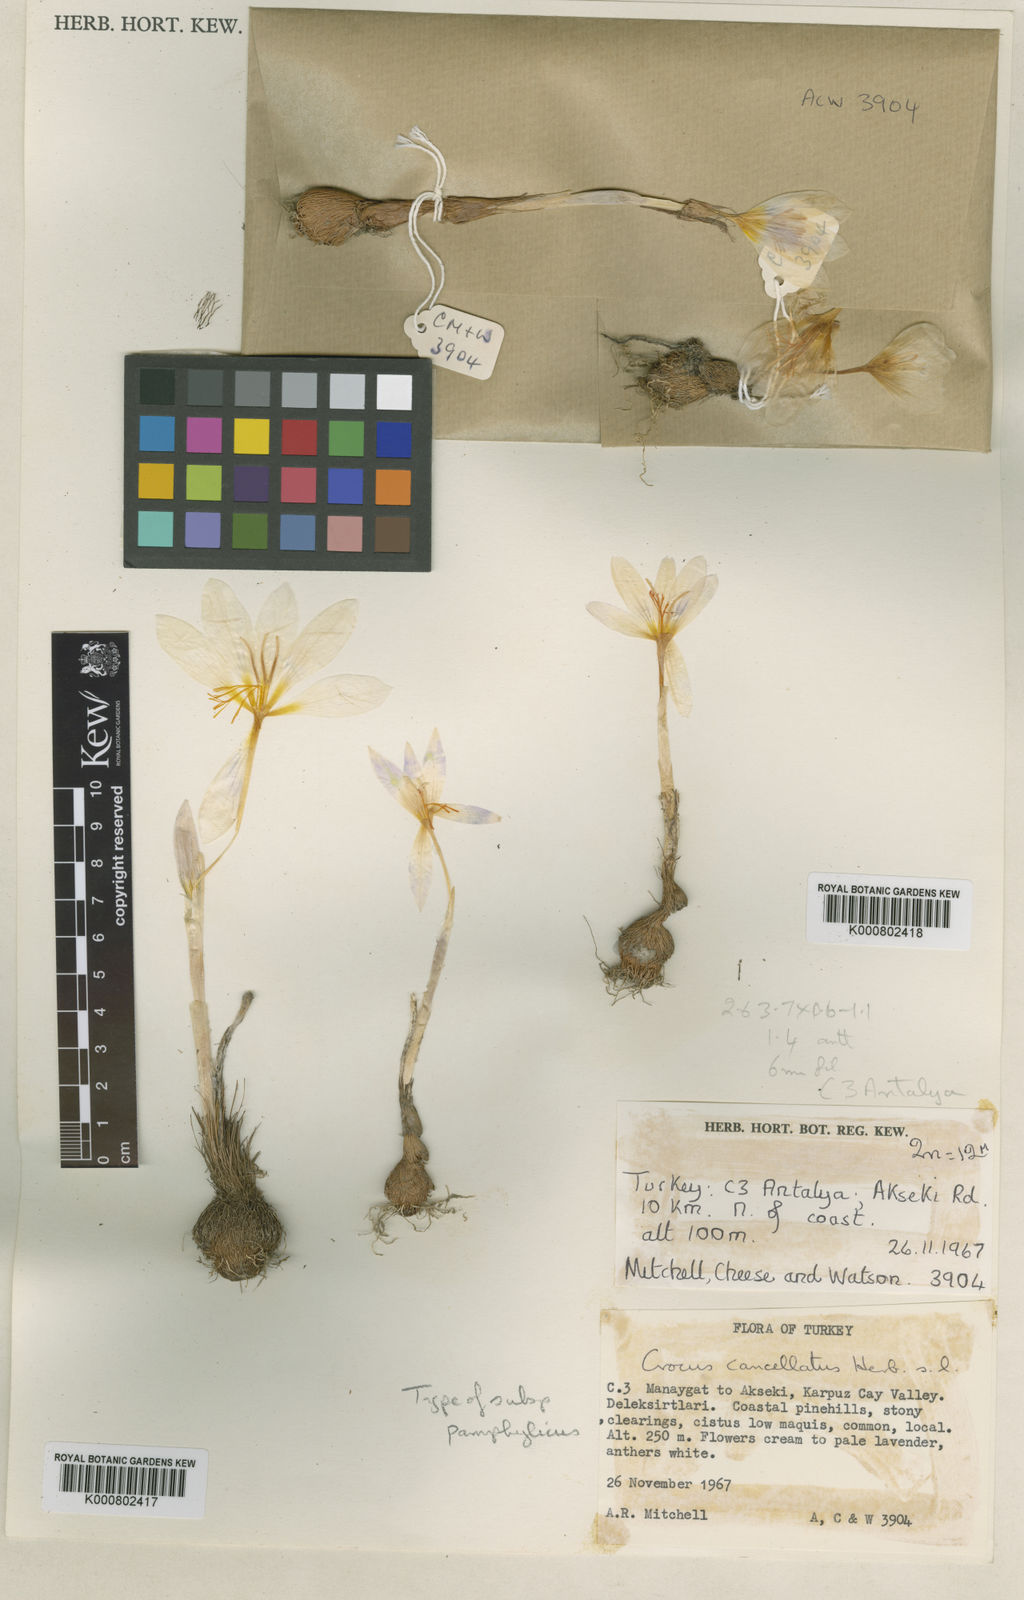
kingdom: Plantae
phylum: Tracheophyta
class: Liliopsida
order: Asparagales
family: Iridaceae
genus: Crocus
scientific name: Crocus pamphylicus
